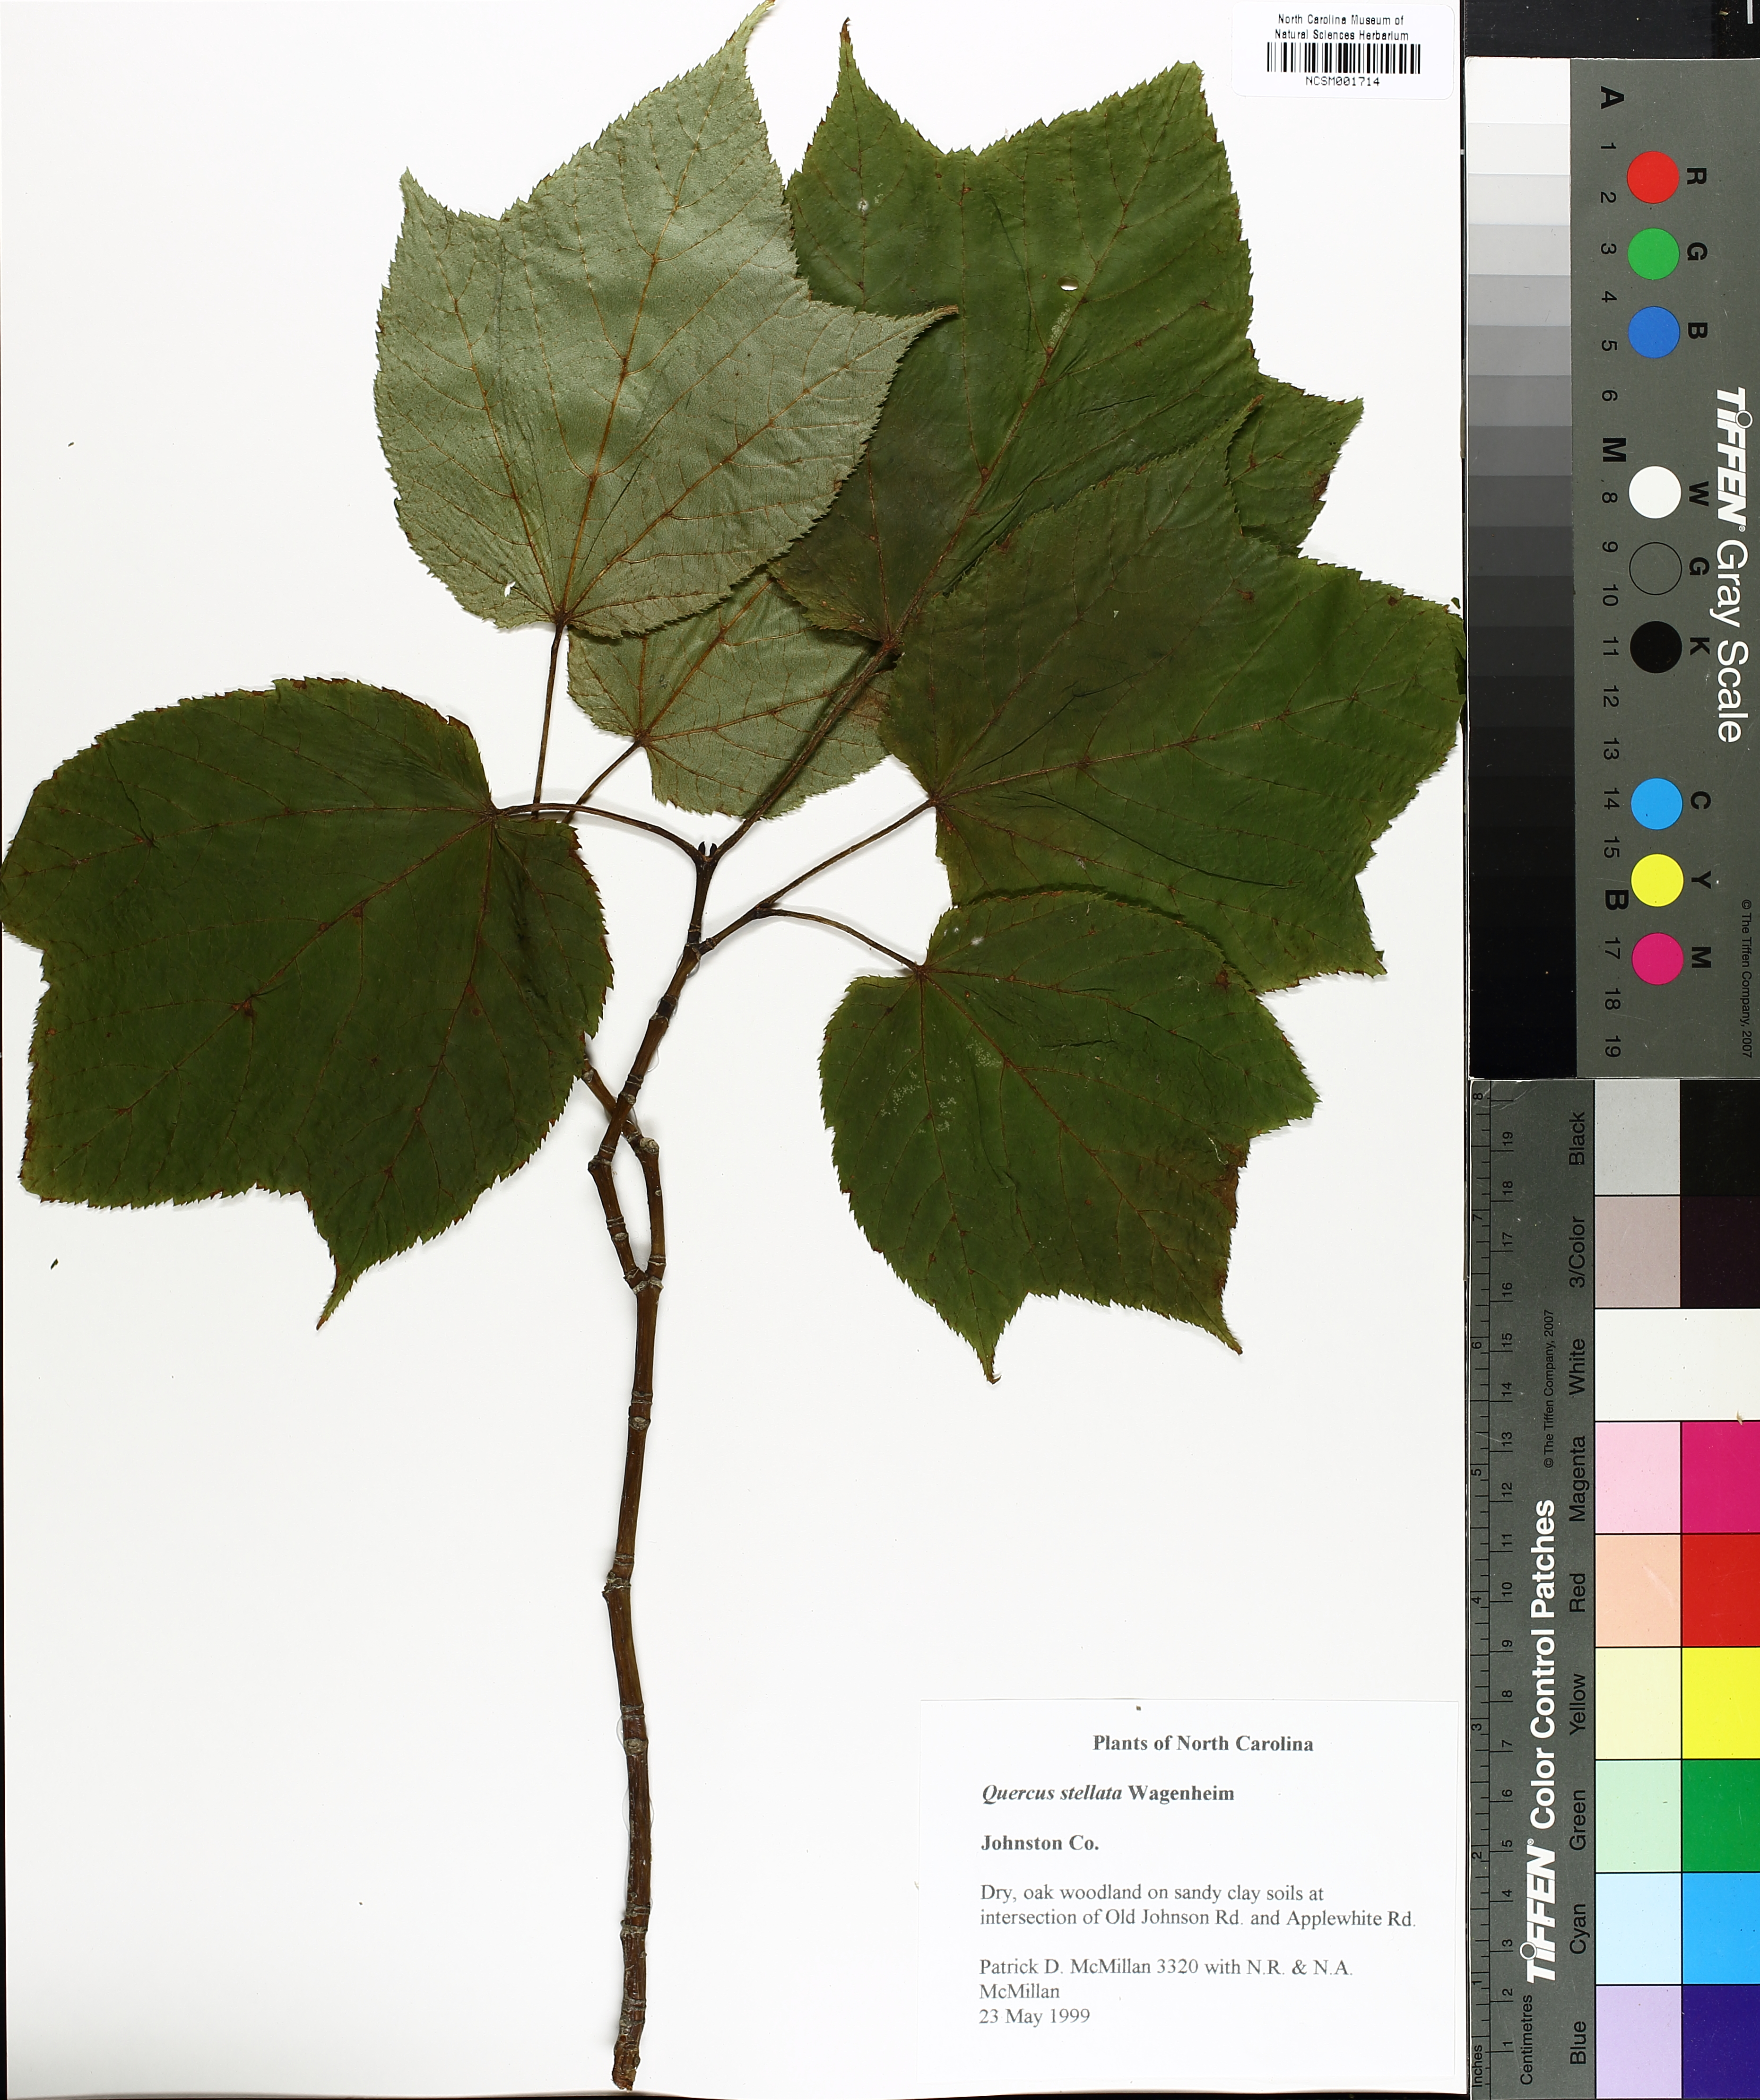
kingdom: Plantae
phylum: Tracheophyta
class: Magnoliopsida
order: Sapindales
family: Sapindaceae
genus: Acer
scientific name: Acer pensylvanicum
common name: Moosewood
